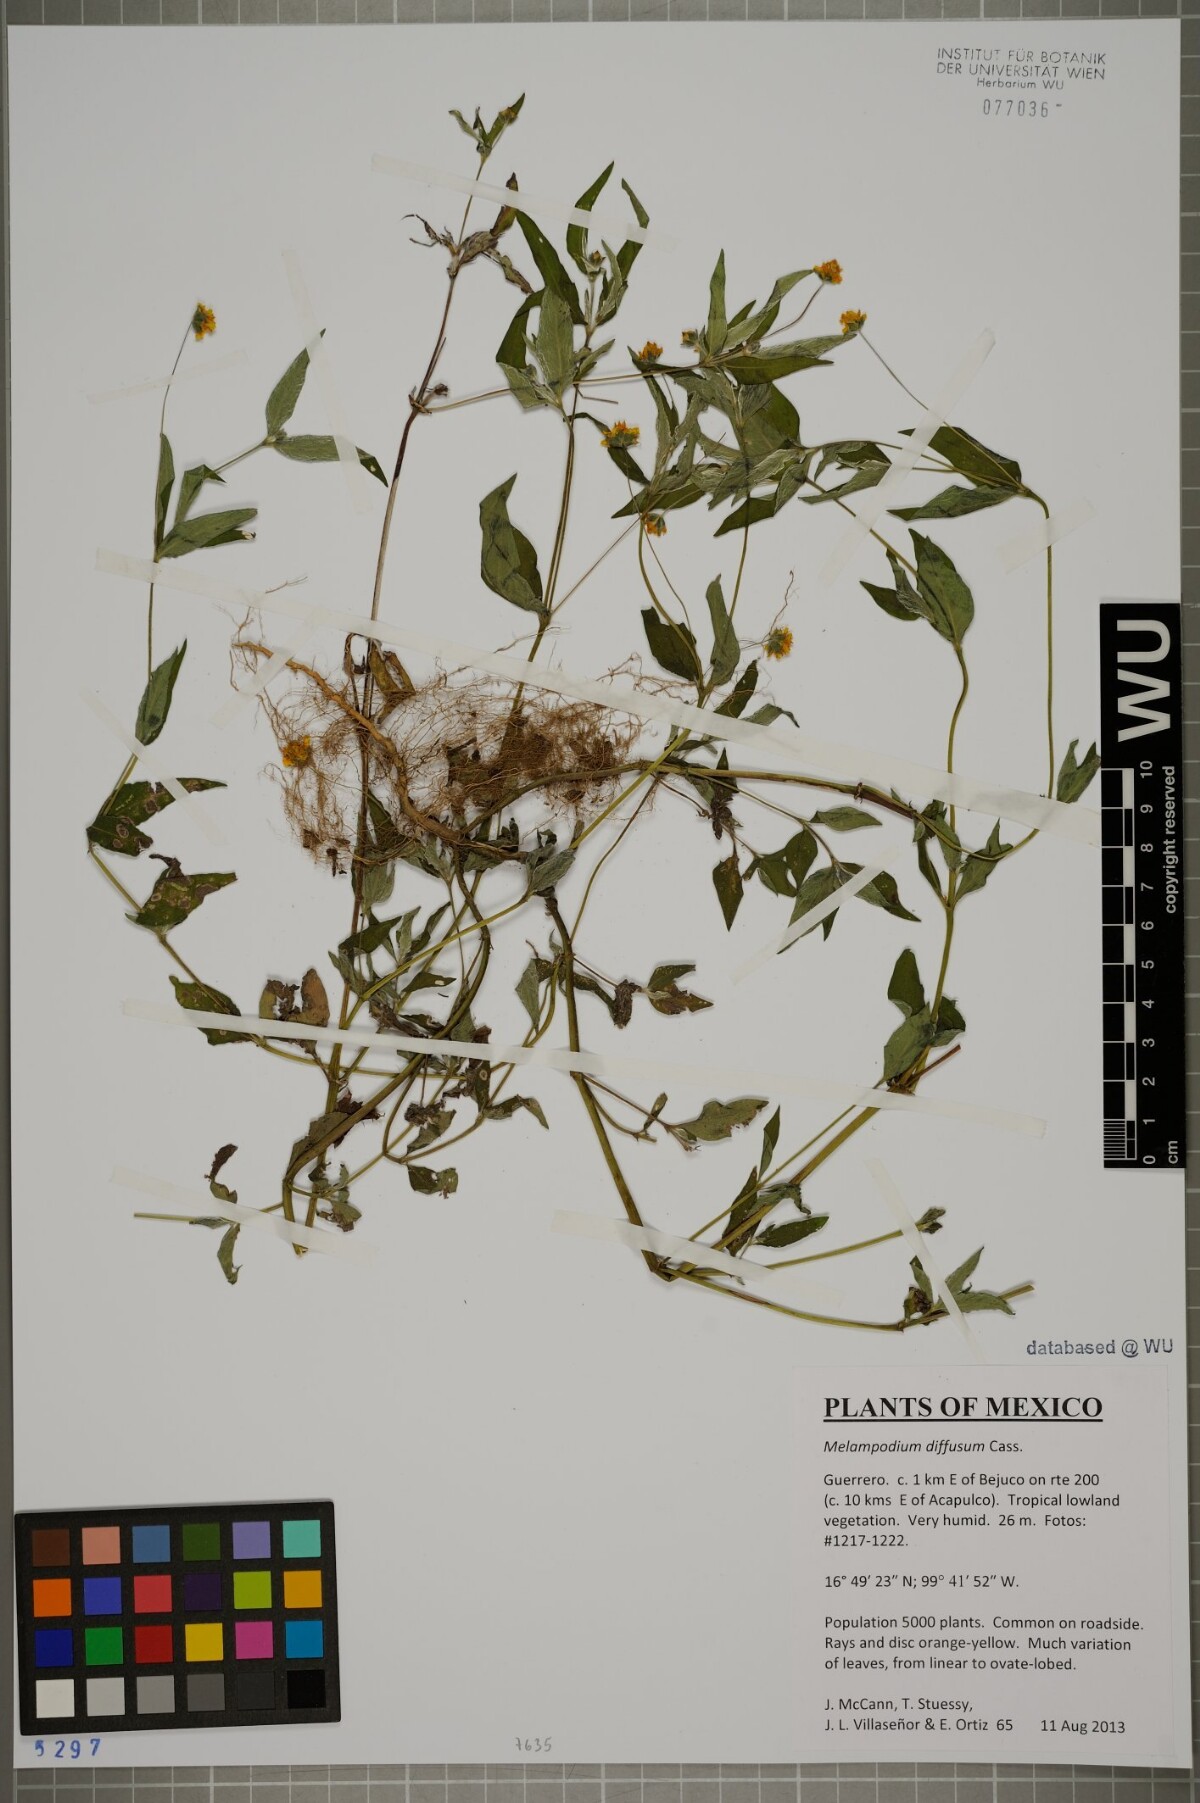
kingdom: Plantae
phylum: Tracheophyta
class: Magnoliopsida
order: Asterales
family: Asteraceae
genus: Melampodium
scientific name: Melampodium diffusum
